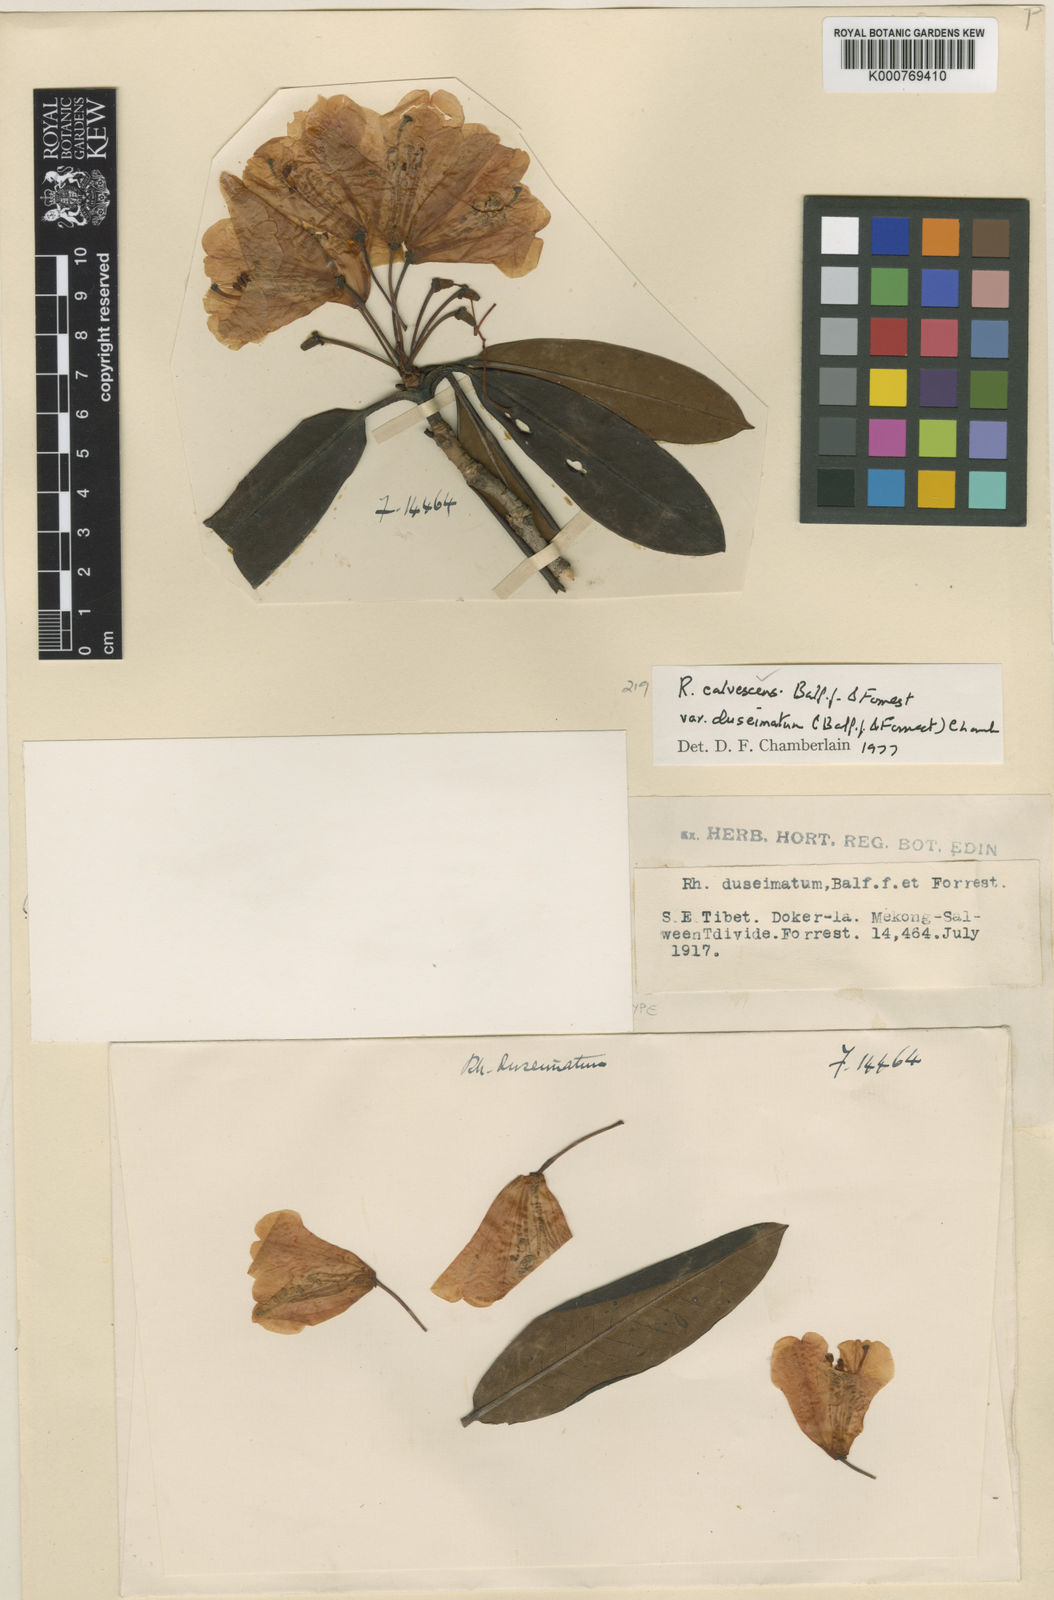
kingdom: Plantae
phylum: Tracheophyta
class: Magnoliopsida
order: Ericales
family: Ericaceae
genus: Rhododendron
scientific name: Rhododendron calvescens
